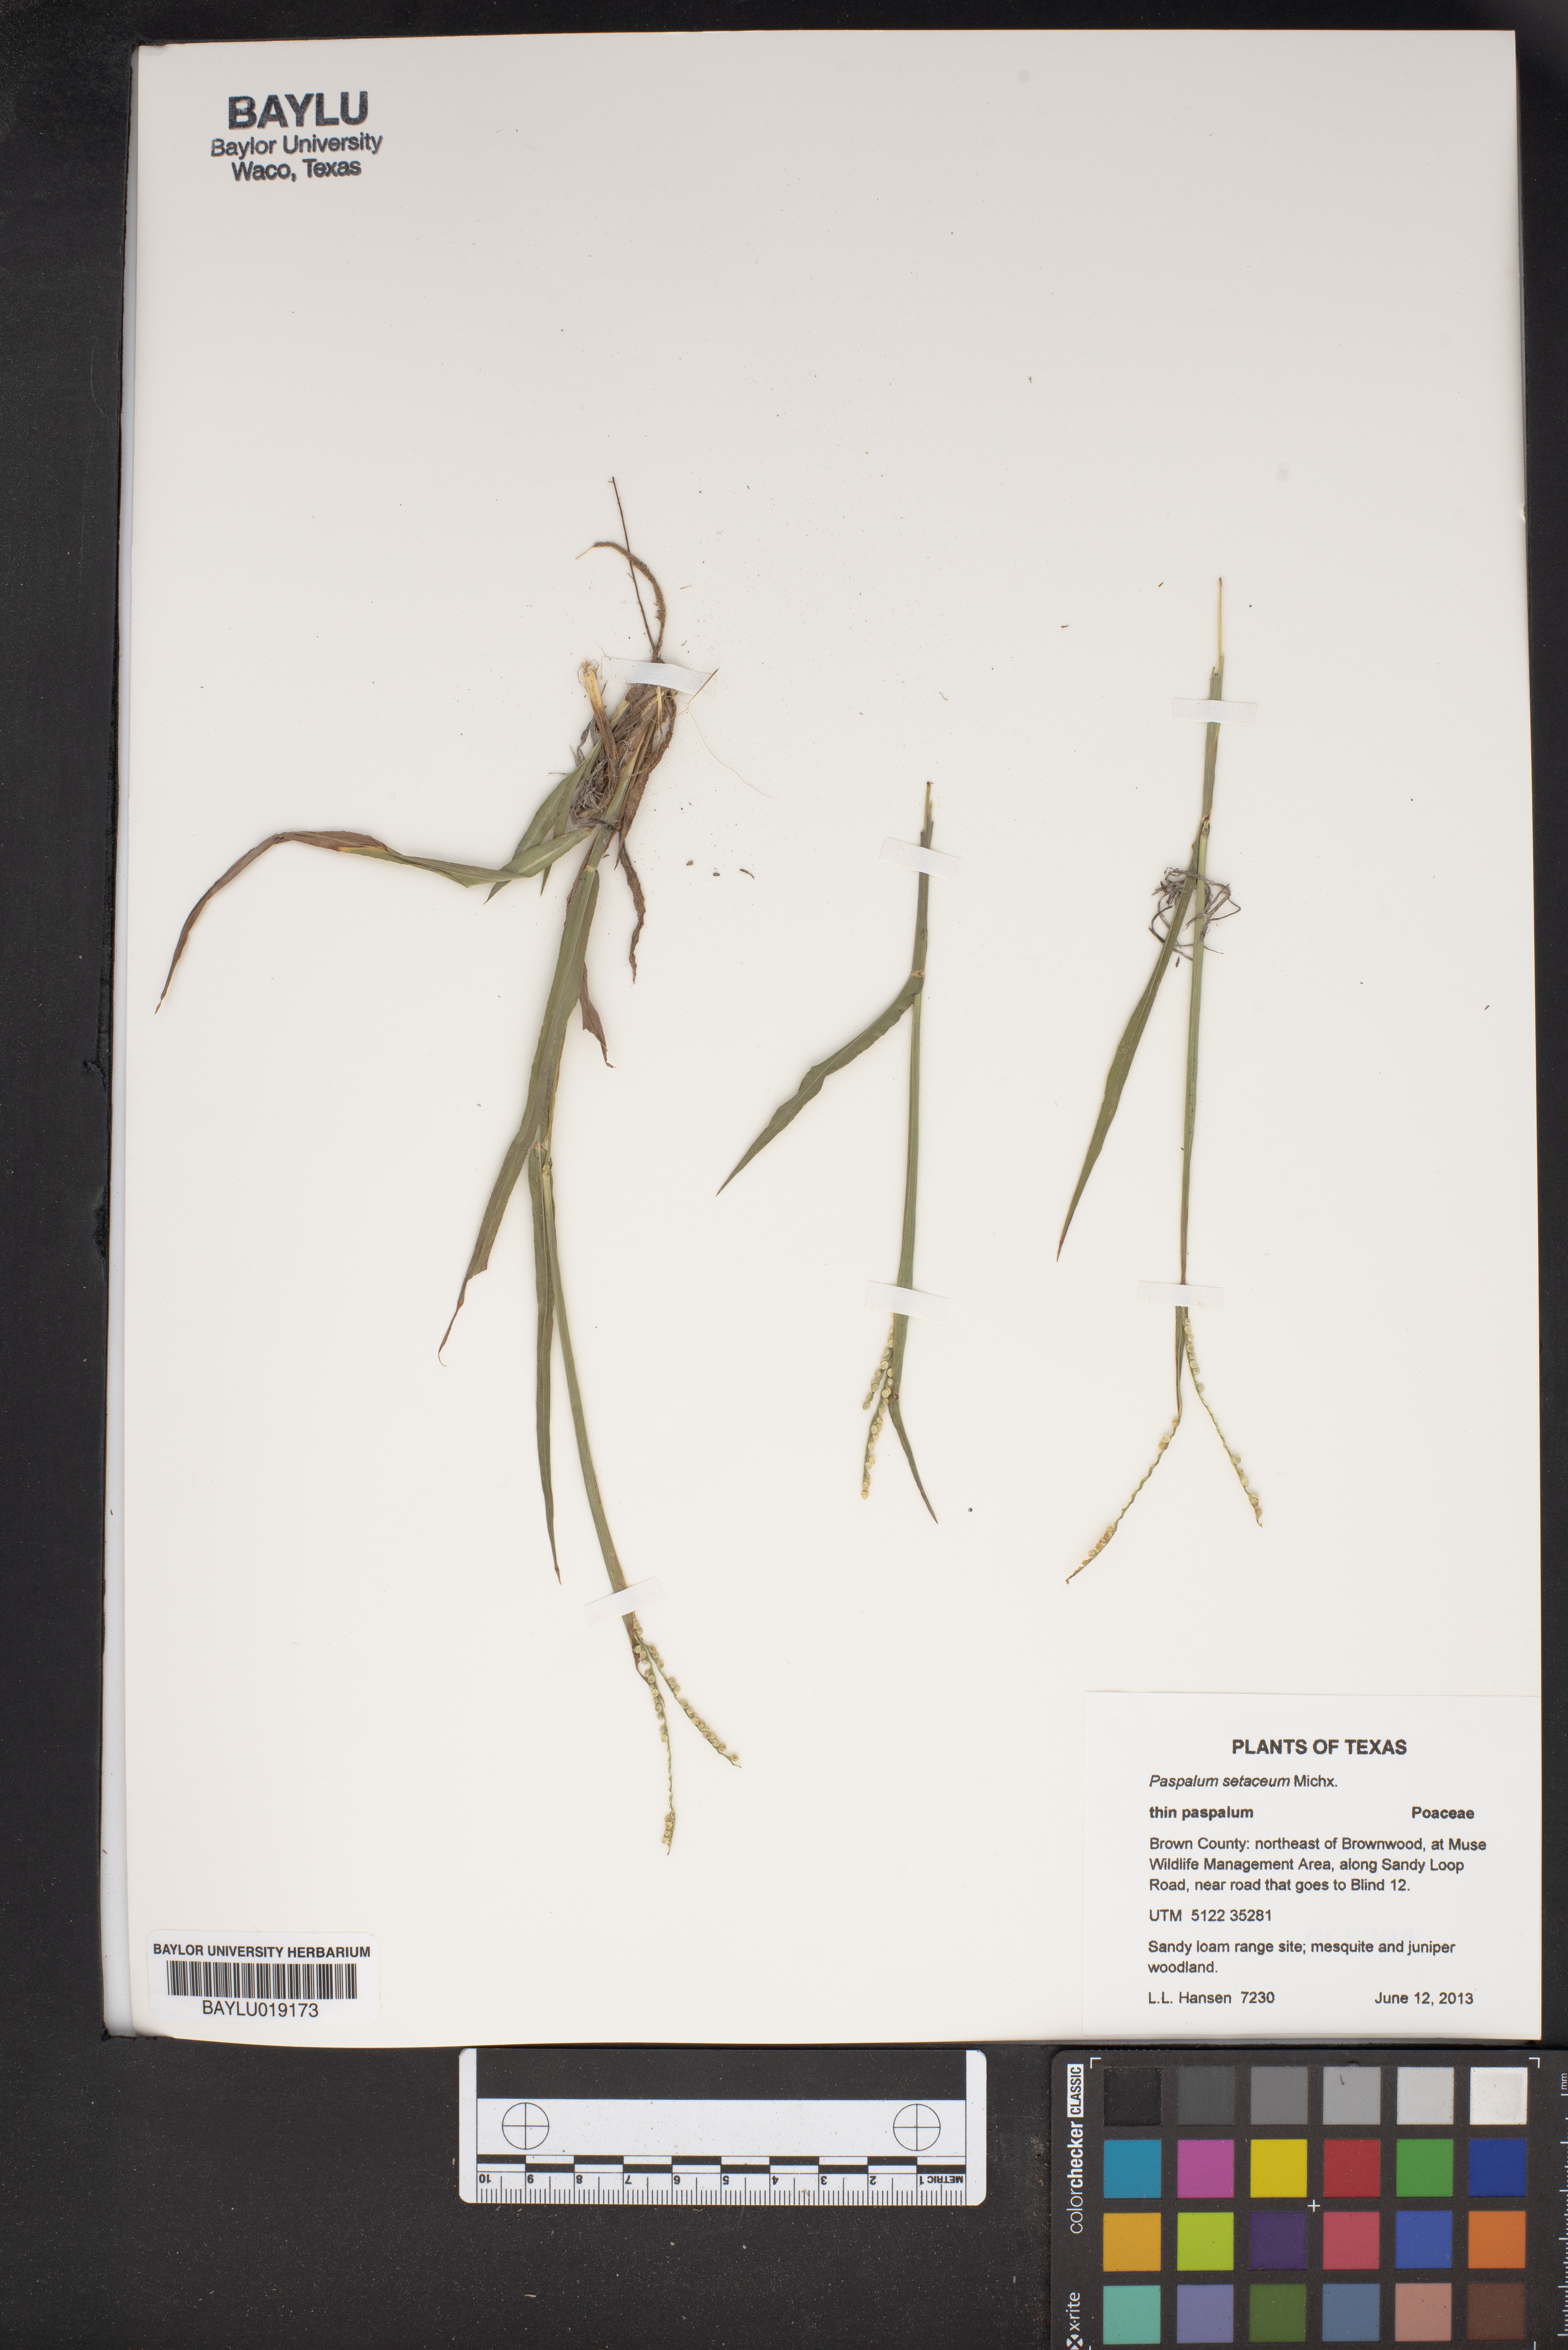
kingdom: Plantae
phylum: Tracheophyta
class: Liliopsida
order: Poales
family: Poaceae
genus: Paspalum
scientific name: Paspalum setaceum
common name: Slender paspalum
